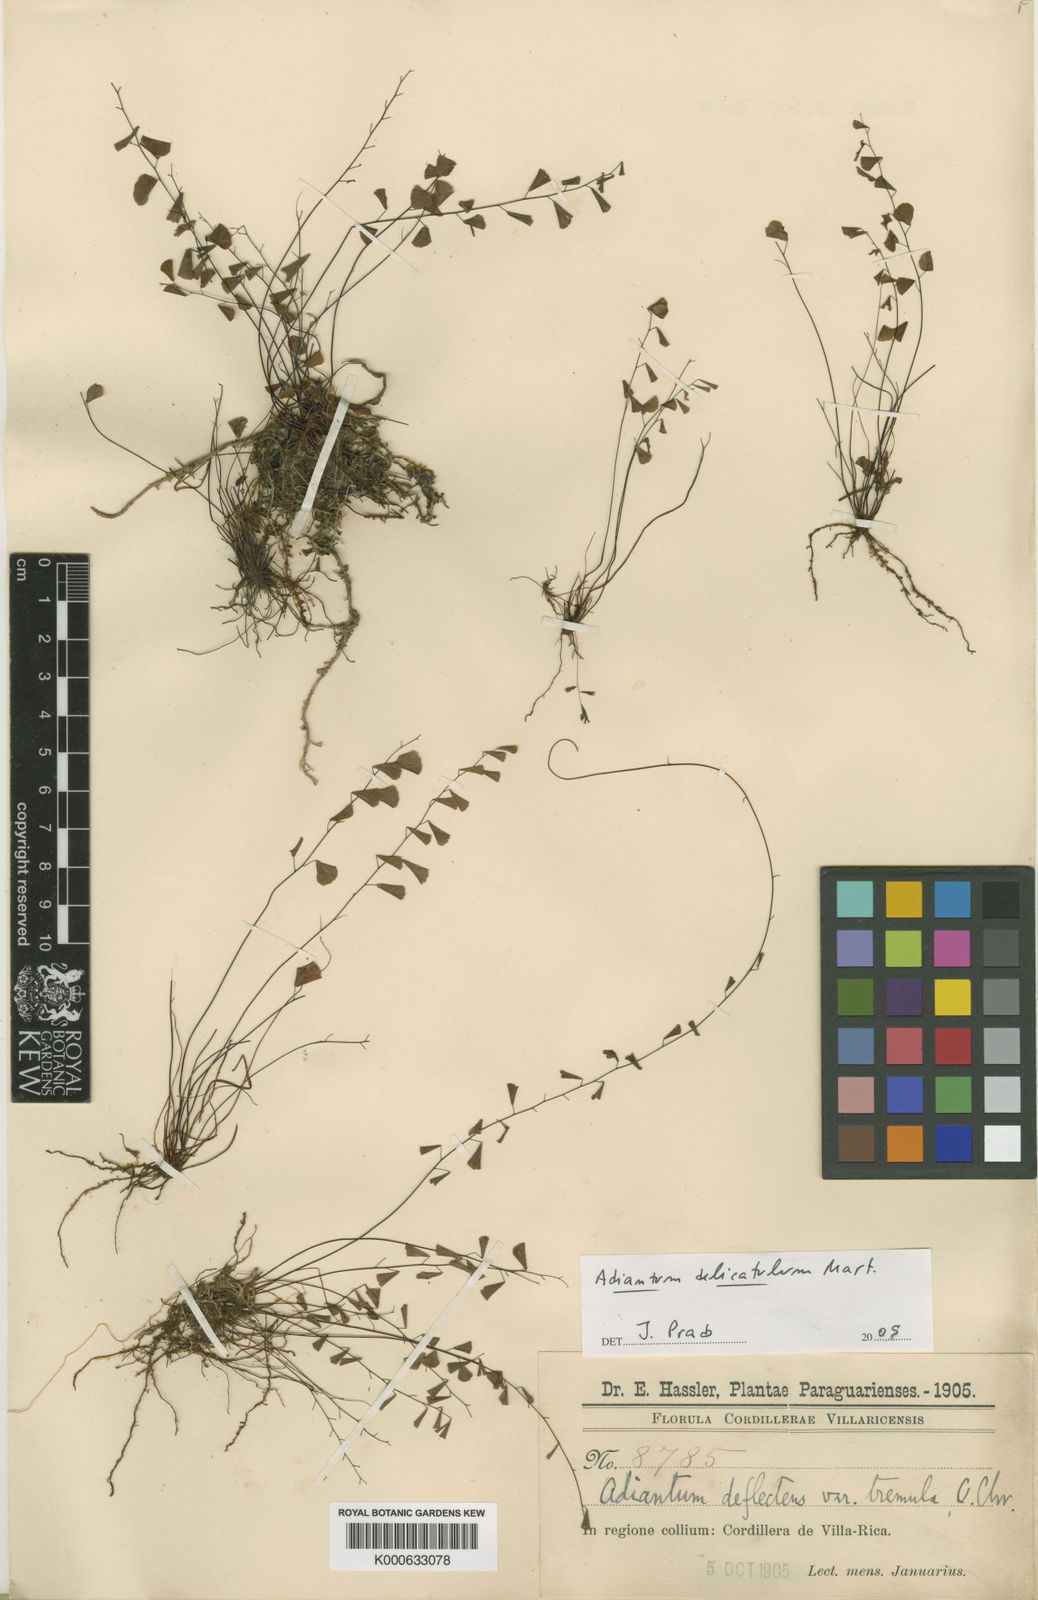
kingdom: Plantae
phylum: Tracheophyta
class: Polypodiopsida
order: Polypodiales
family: Pteridaceae
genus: Adiantum
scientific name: Adiantum delicatulum
